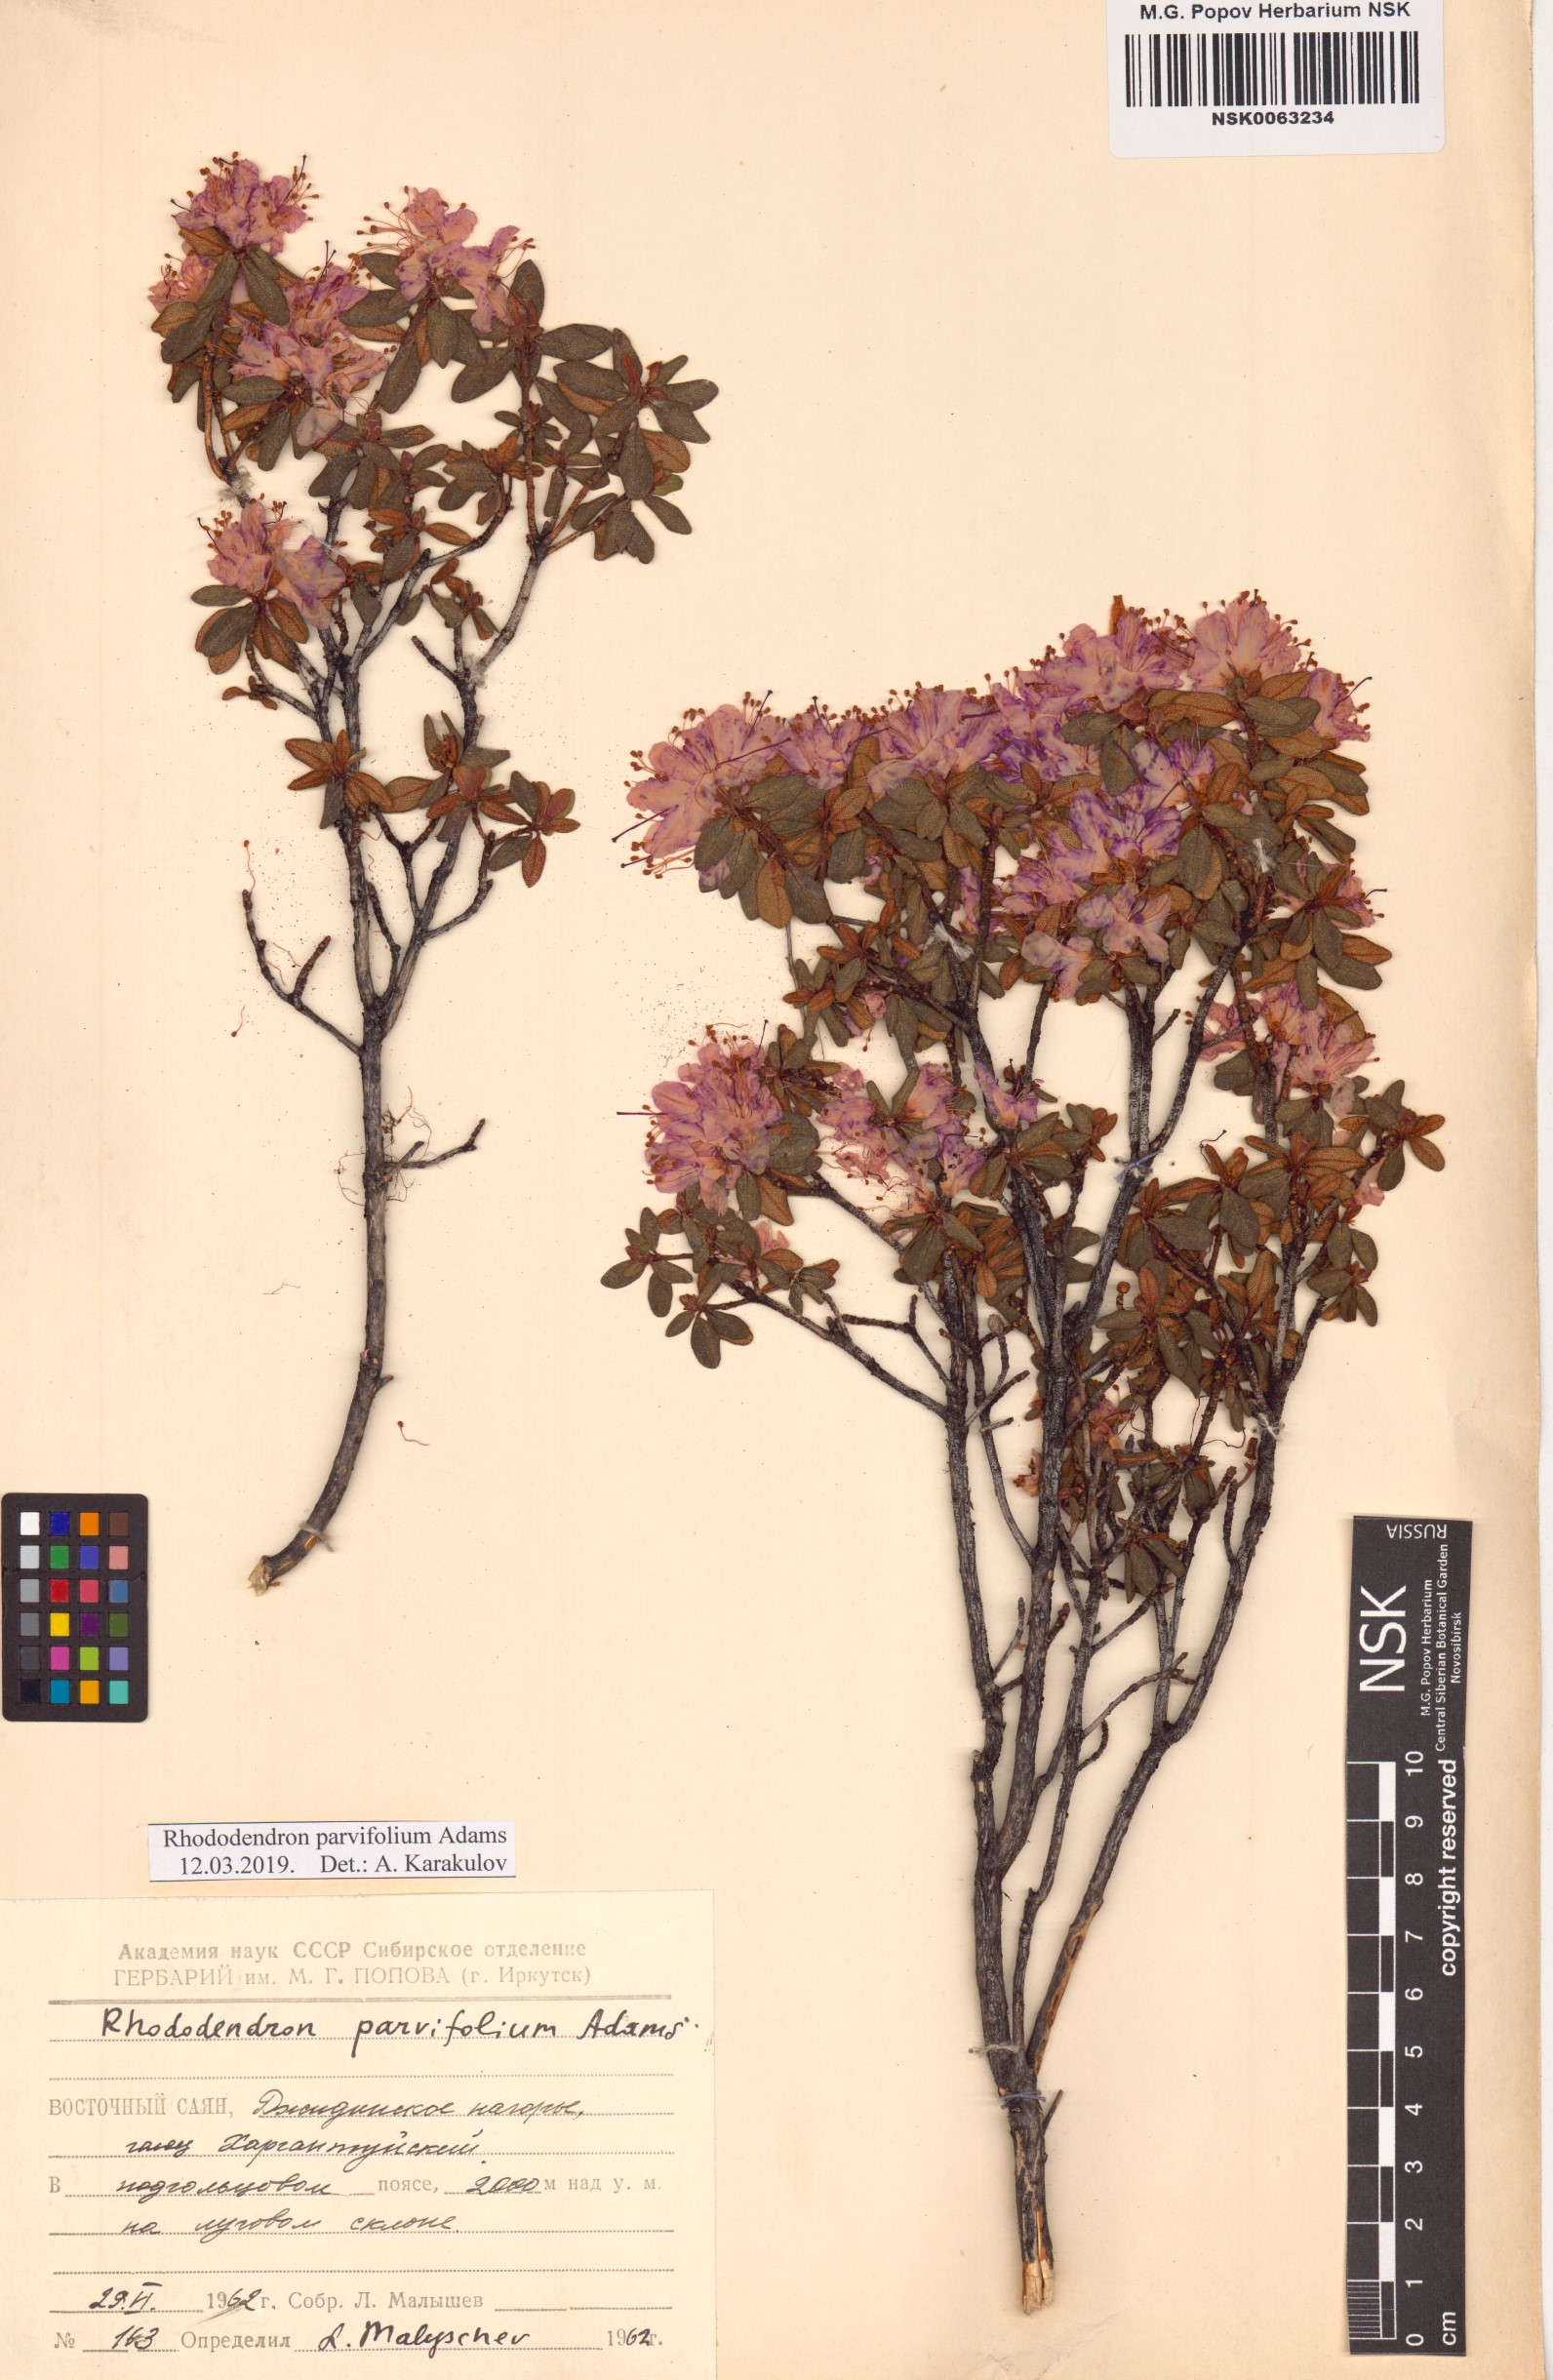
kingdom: Plantae
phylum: Tracheophyta
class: Magnoliopsida
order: Ericales
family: Ericaceae
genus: Rhododendron
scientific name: Rhododendron parvifolium
